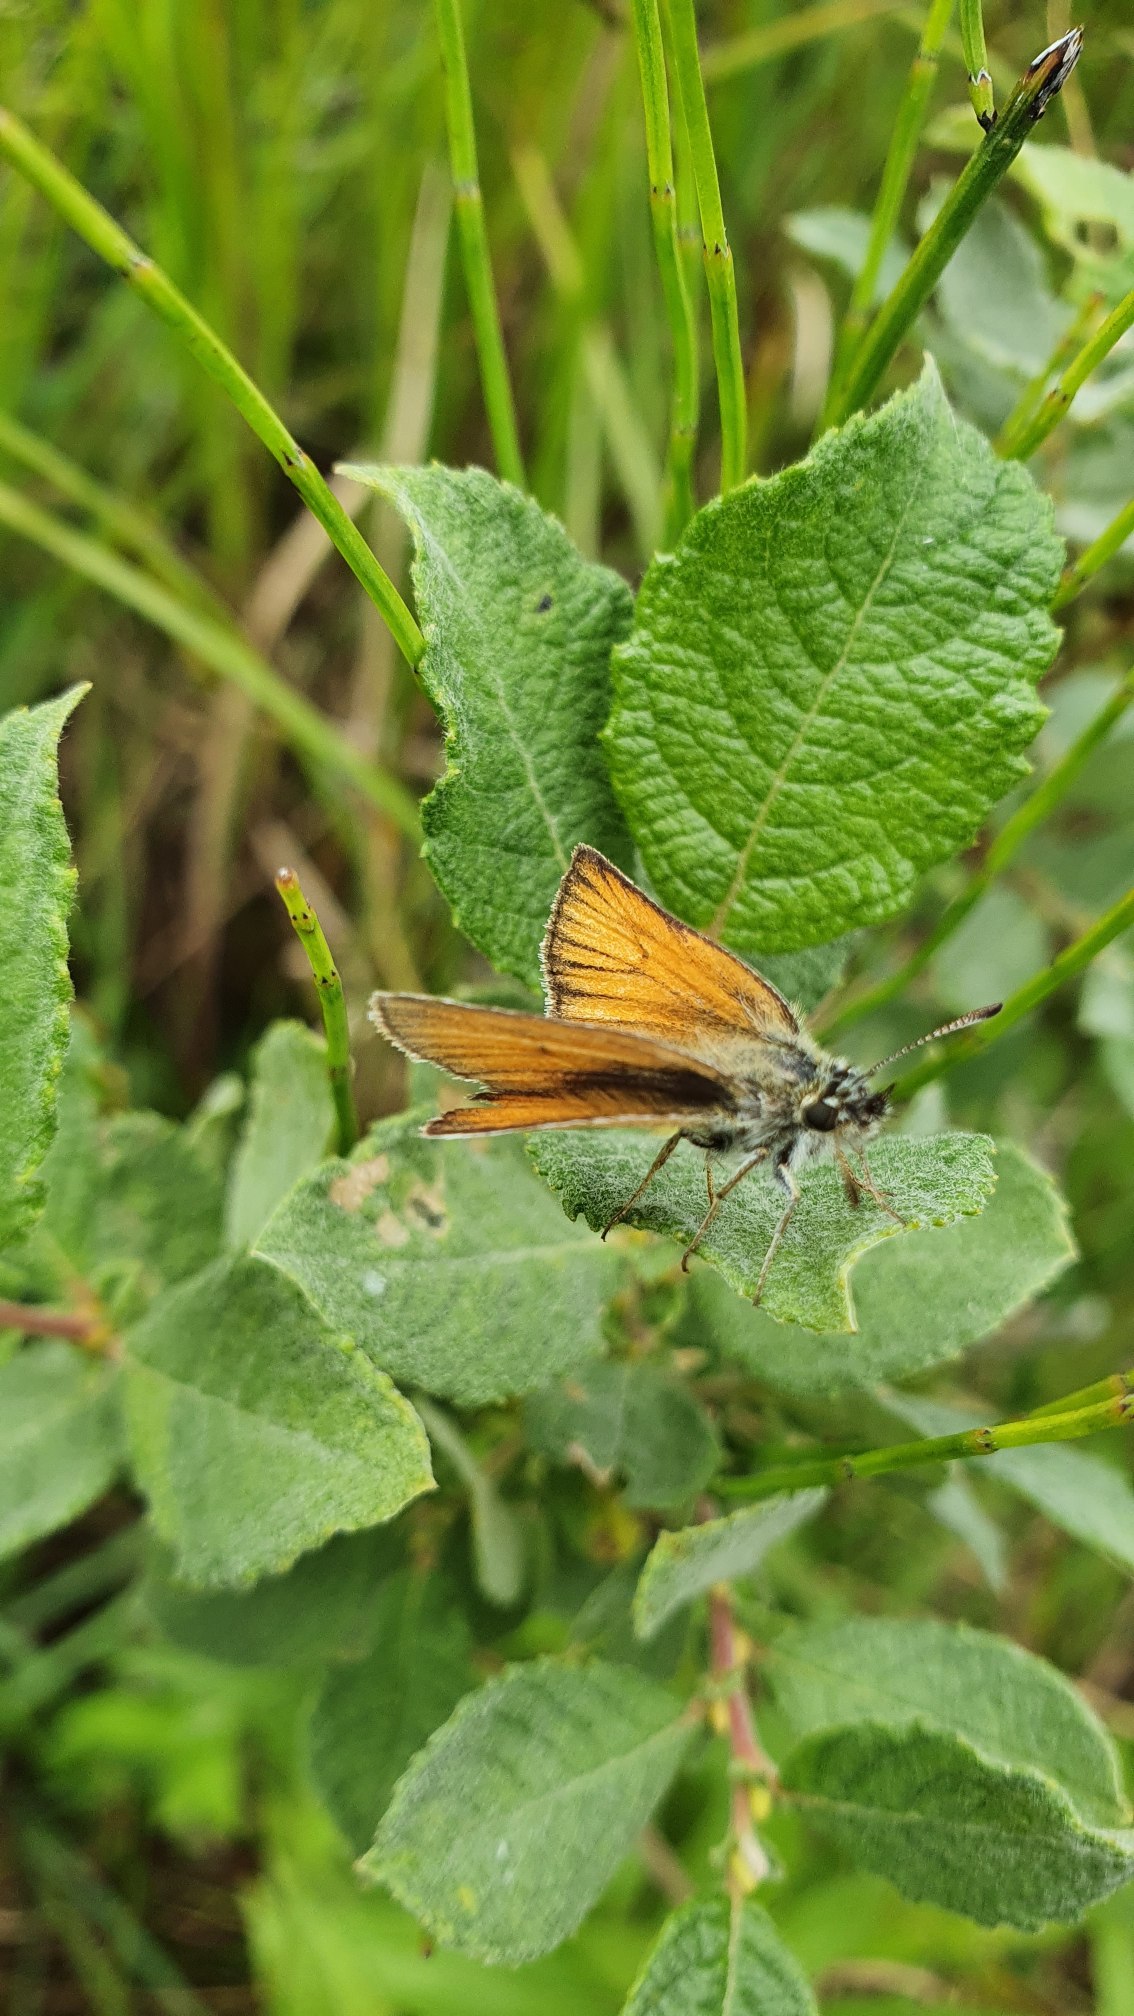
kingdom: Animalia
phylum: Arthropoda
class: Insecta
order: Lepidoptera
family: Hesperiidae
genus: Thymelicus
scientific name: Thymelicus lineola
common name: Stregbredpande
